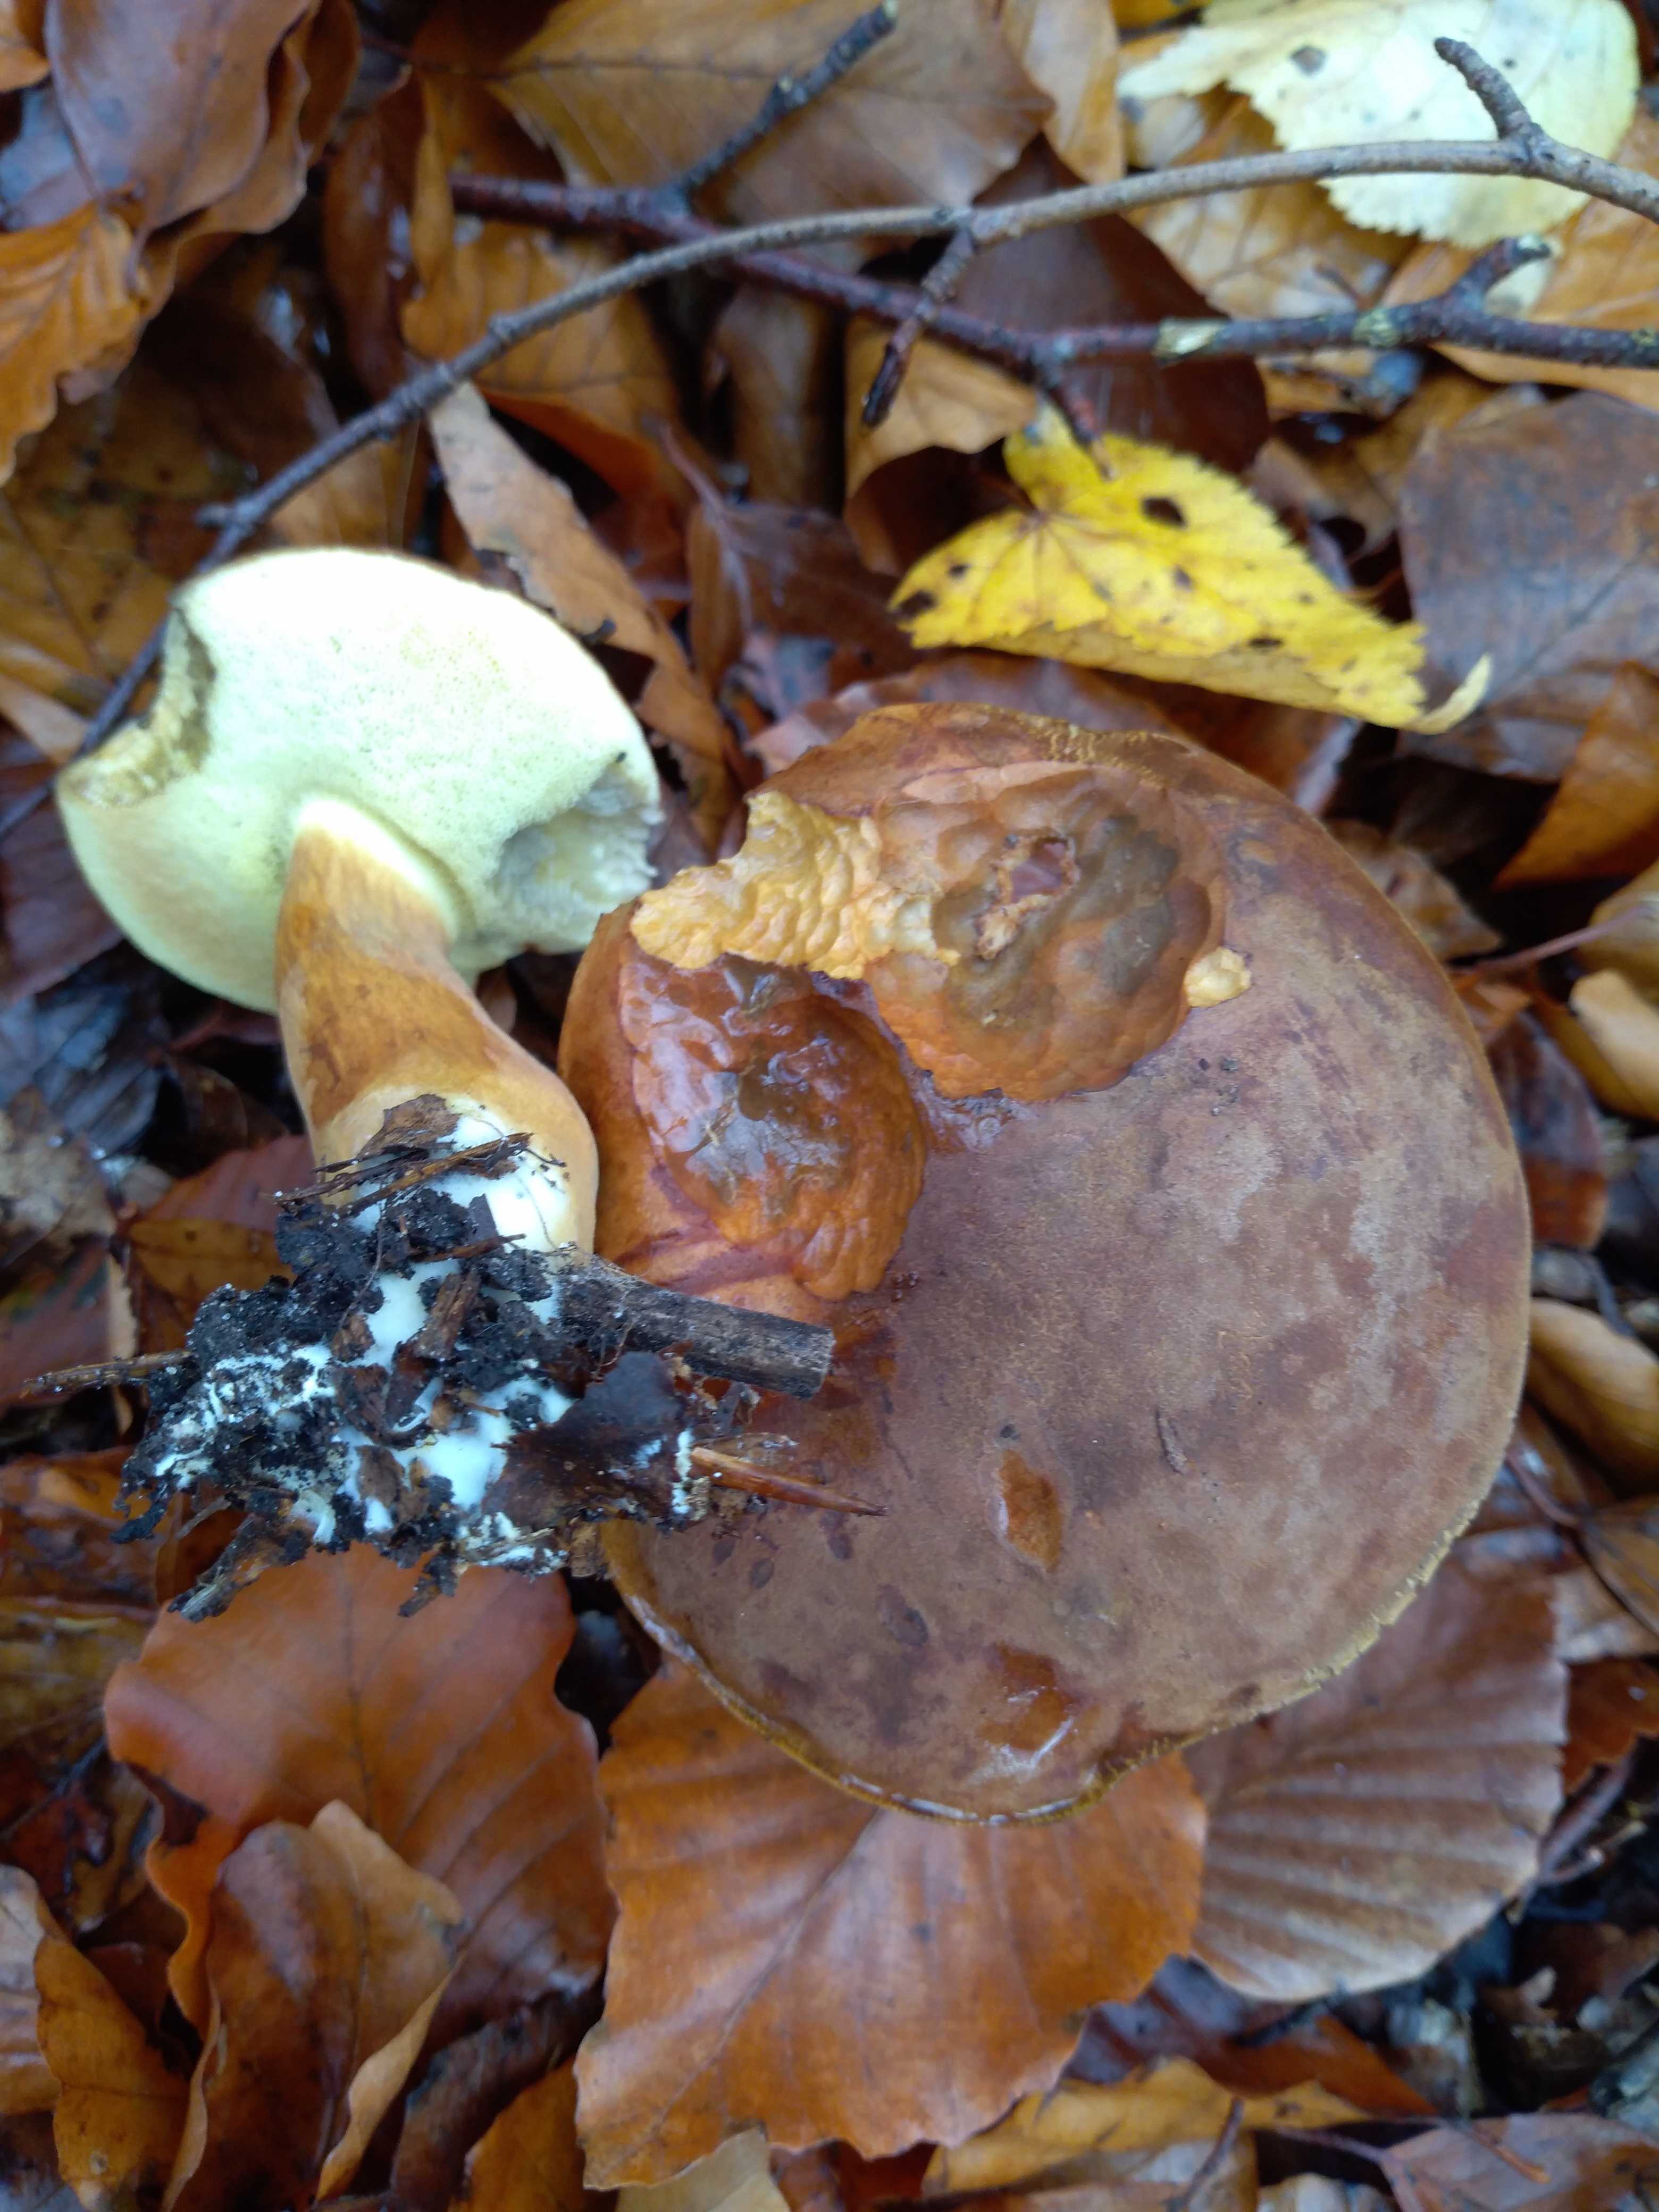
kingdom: Fungi
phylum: Basidiomycota
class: Agaricomycetes
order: Boletales
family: Boletaceae
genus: Imleria
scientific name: Imleria badia
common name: brunstokket rørhat
